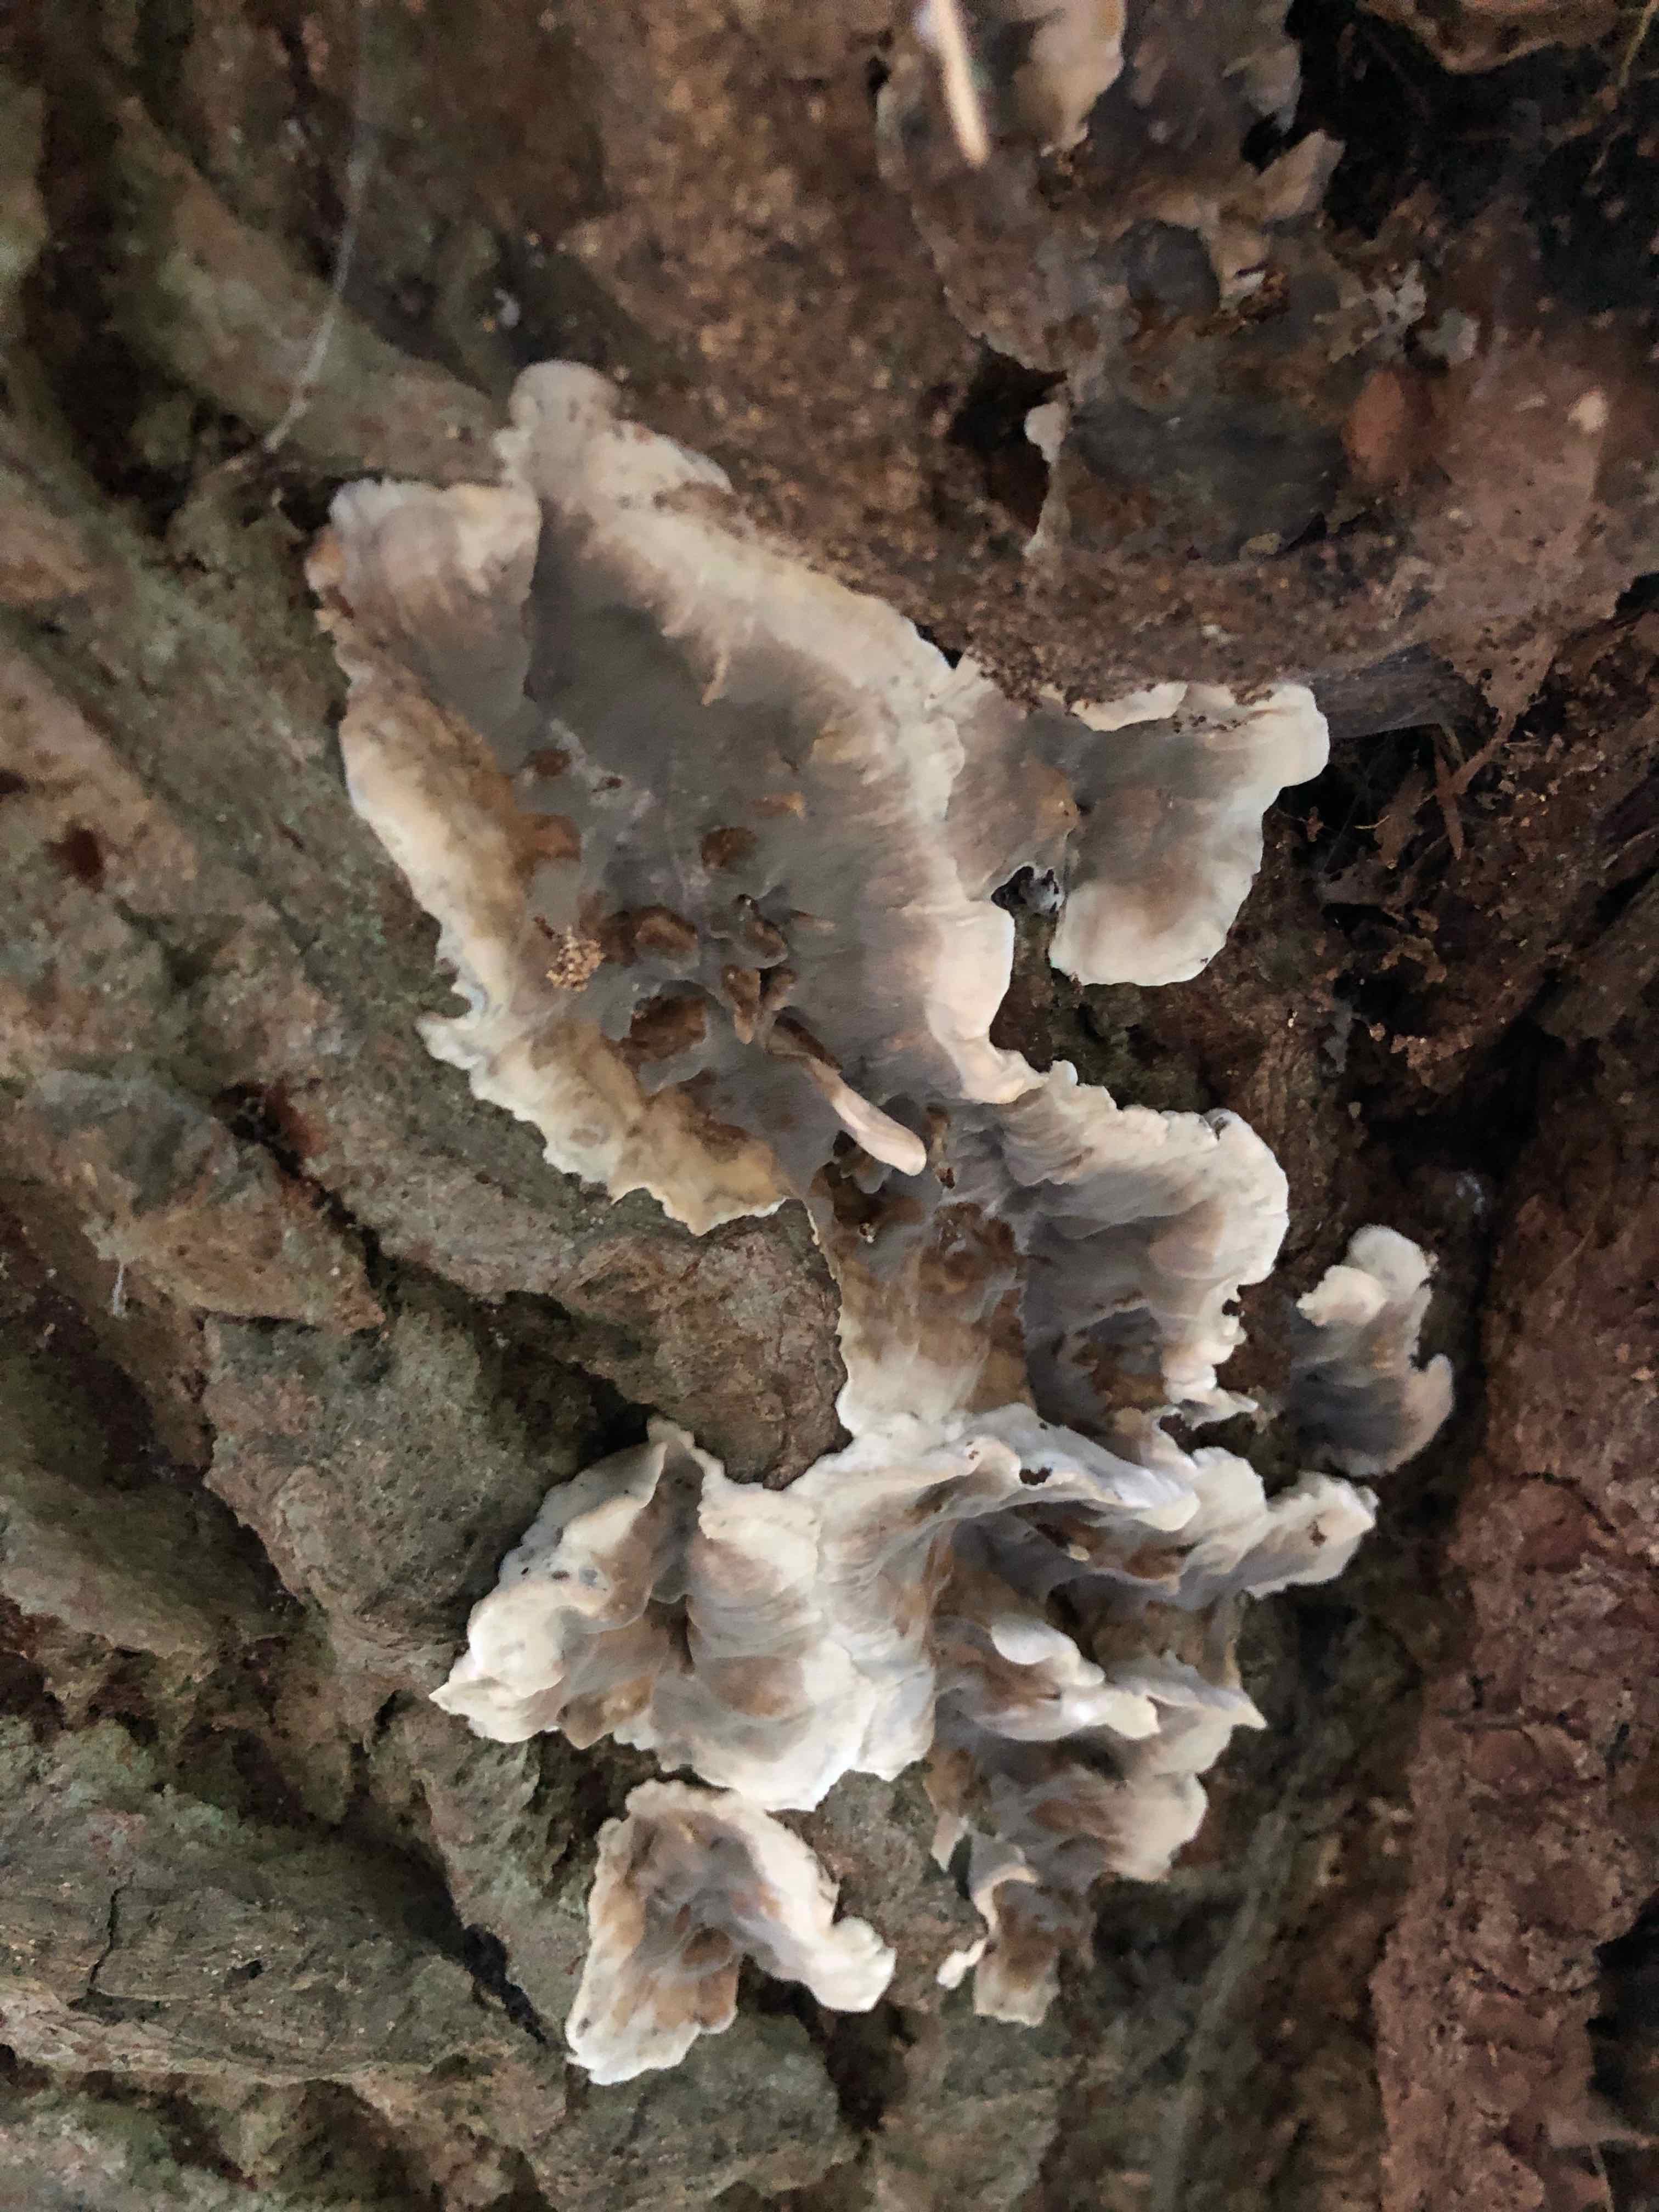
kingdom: Fungi
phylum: Basidiomycota
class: Agaricomycetes
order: Polyporales
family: Phanerochaetaceae
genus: Bjerkandera
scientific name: Bjerkandera adusta
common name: sveden sodporesvamp
